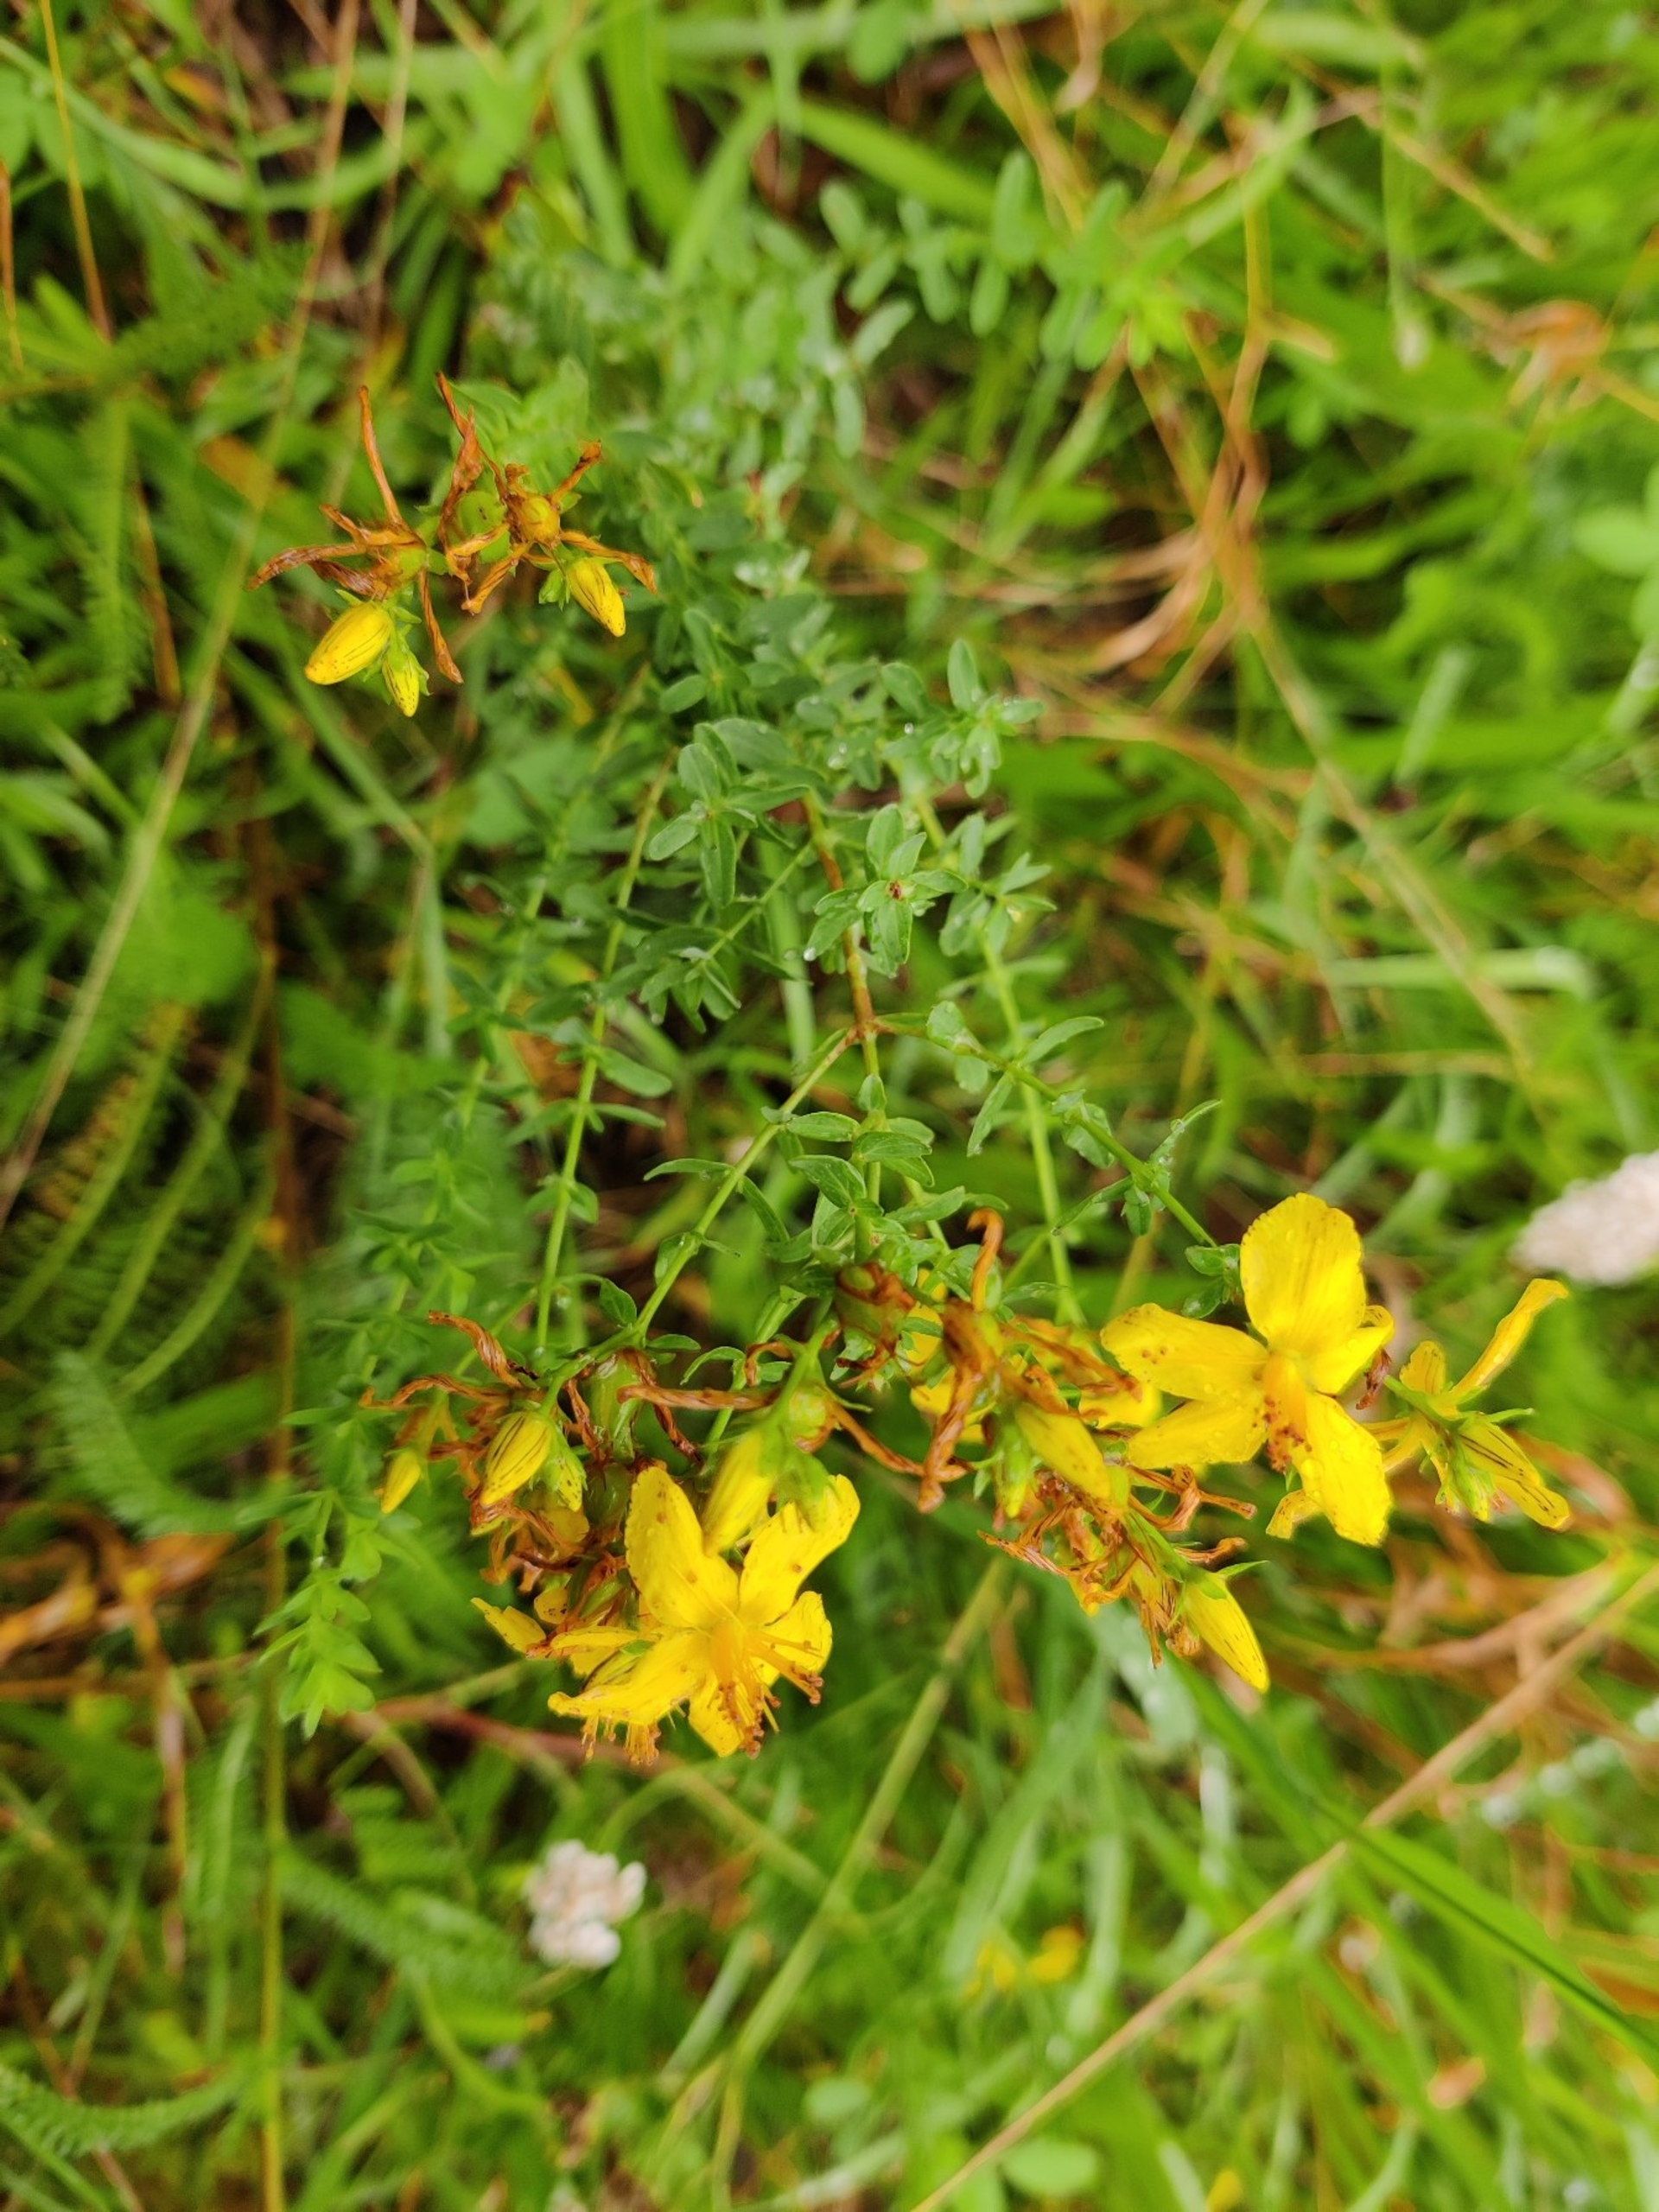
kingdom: Plantae
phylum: Tracheophyta
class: Magnoliopsida
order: Malpighiales
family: Hypericaceae
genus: Hypericum
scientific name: Hypericum perforatum
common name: Prikbladet perikon
